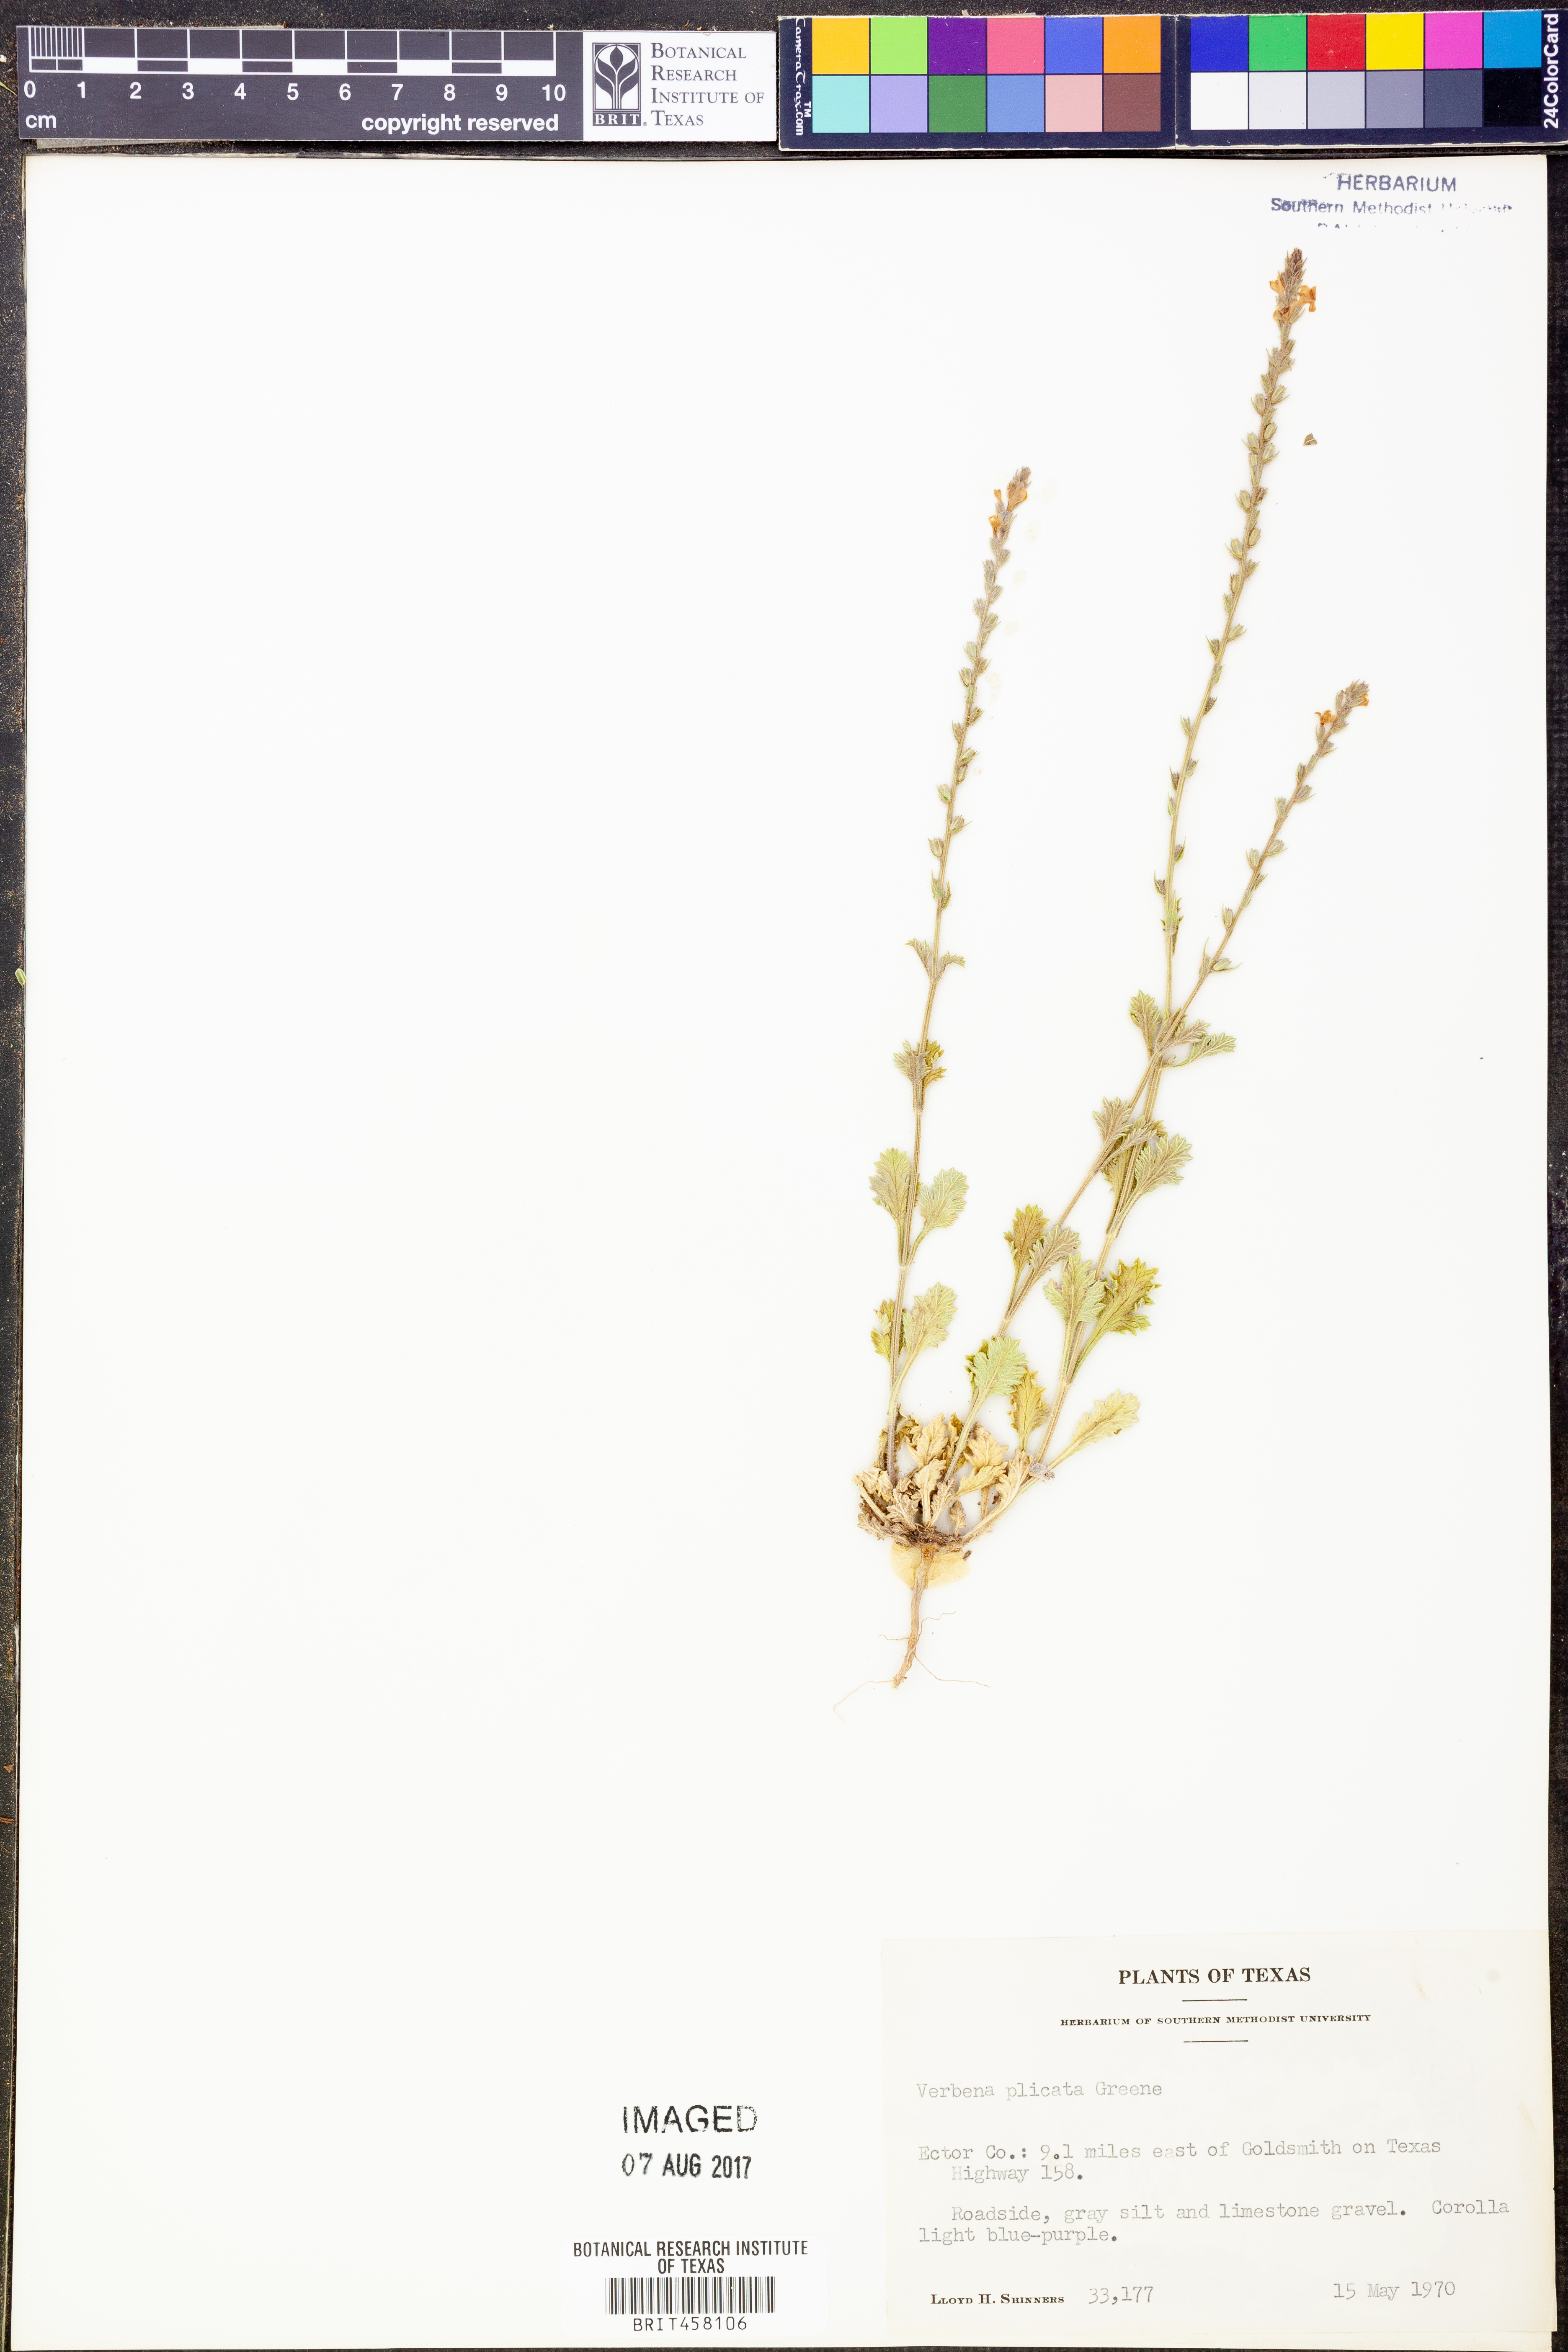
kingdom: Plantae
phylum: Tracheophyta
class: Magnoliopsida
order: Lamiales
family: Verbenaceae
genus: Verbena
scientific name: Verbena plicata
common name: Fan-leaf vervain
